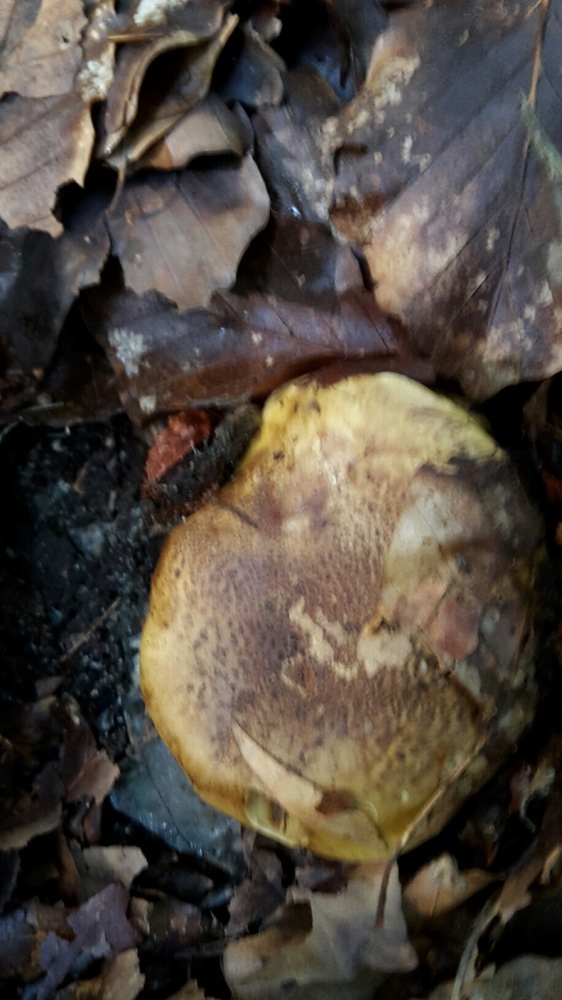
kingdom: Fungi
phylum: Basidiomycota
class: Agaricomycetes
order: Agaricales
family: Cortinariaceae
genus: Calonarius
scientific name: Calonarius citrinus
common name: citrongul slørhat
